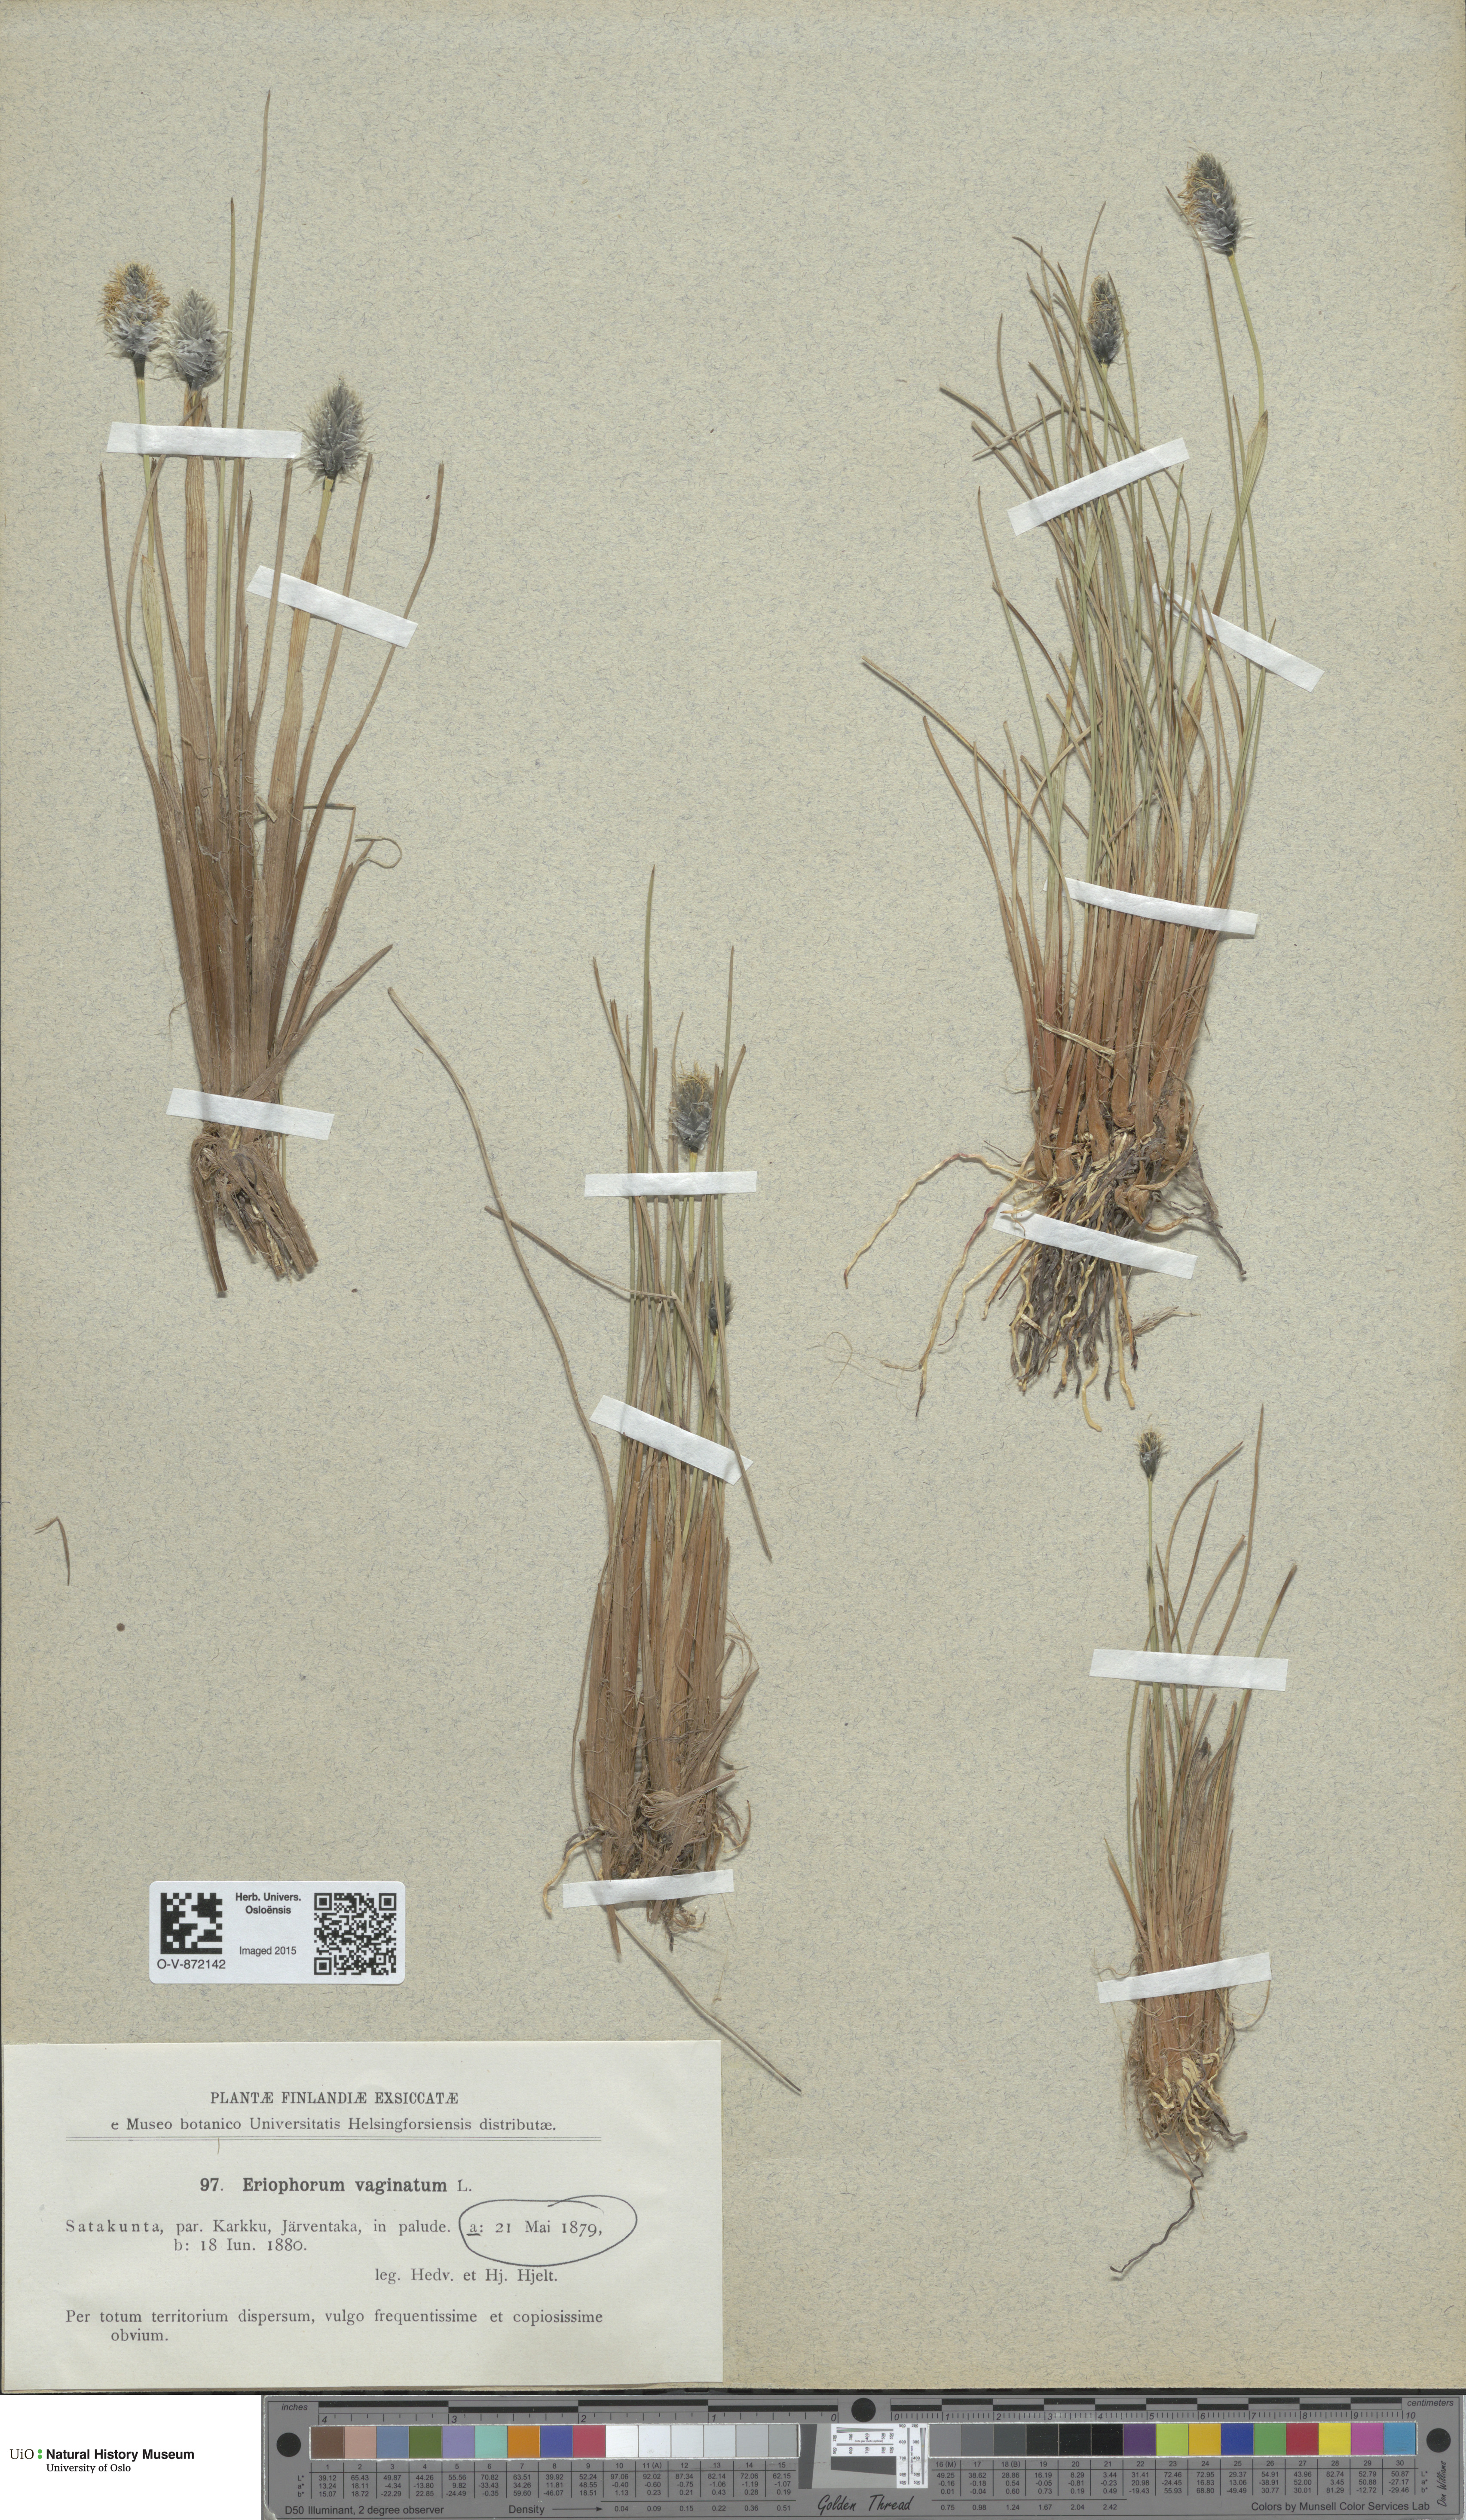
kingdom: Plantae
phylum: Tracheophyta
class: Liliopsida
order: Poales
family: Cyperaceae
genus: Eriophorum
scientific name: Eriophorum vaginatum
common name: Hare's-tail cottongrass
